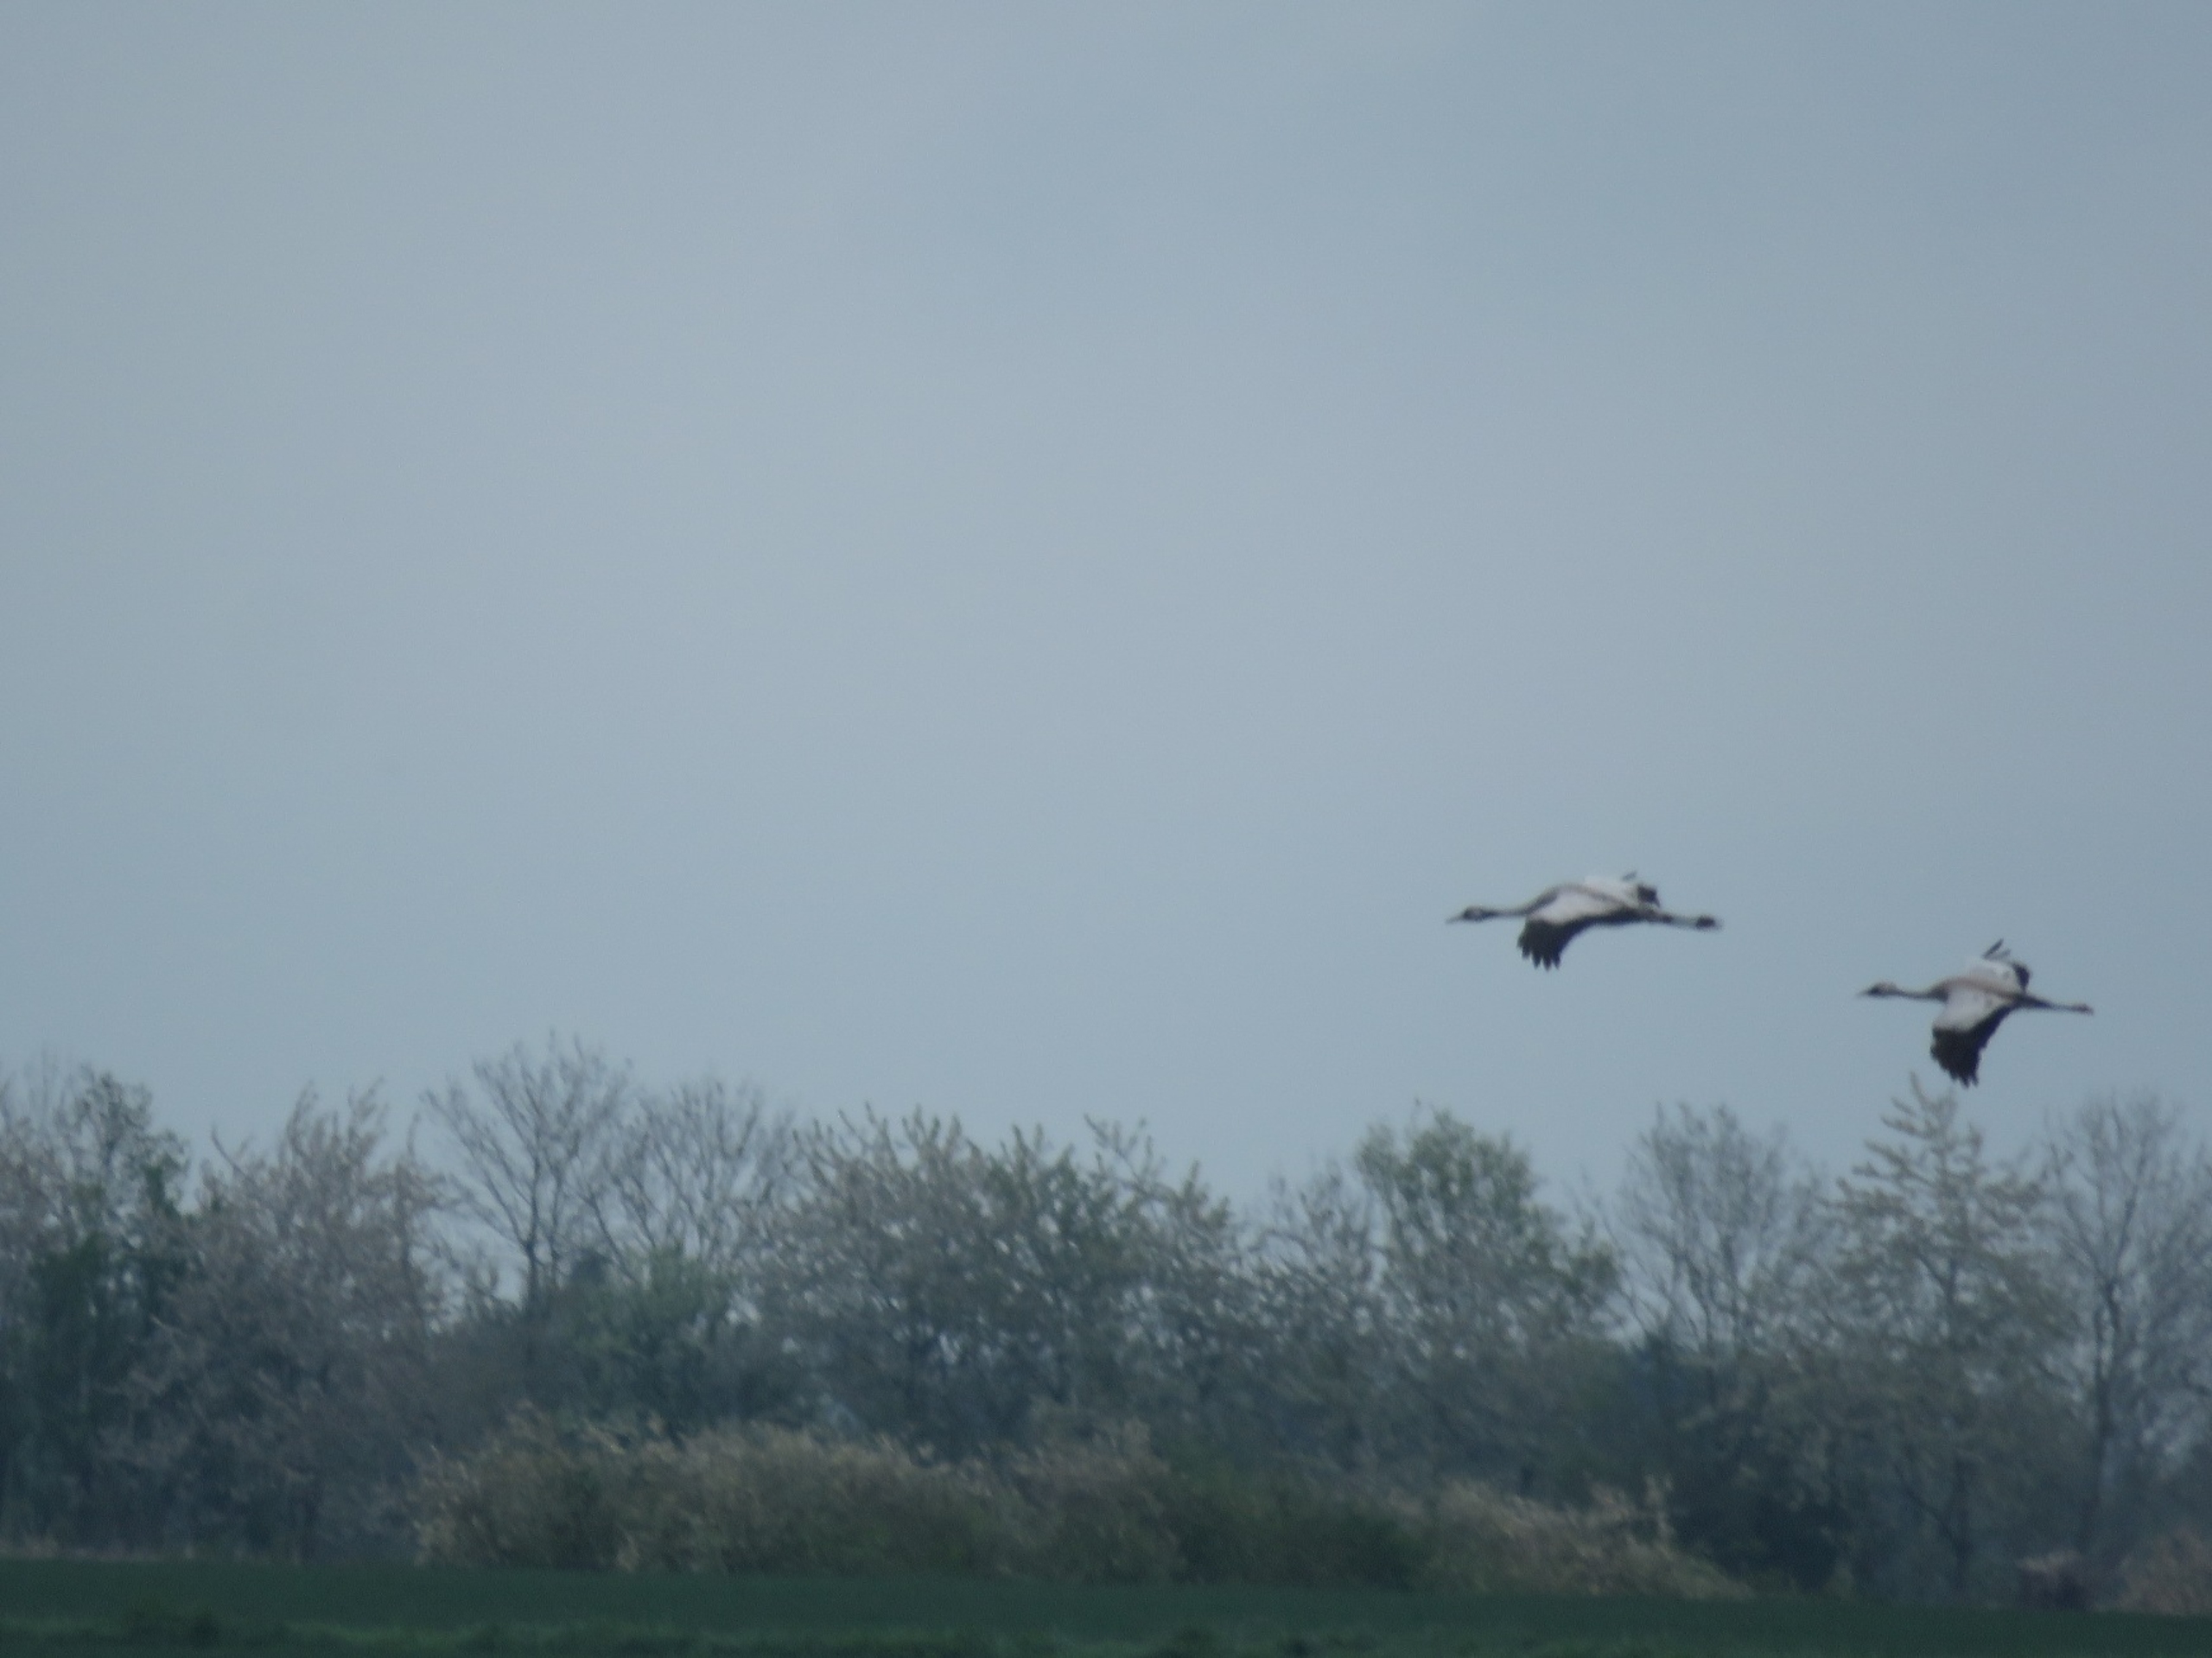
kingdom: Animalia
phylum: Chordata
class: Aves
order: Gruiformes
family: Gruidae
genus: Grus
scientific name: Grus grus
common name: Trane
